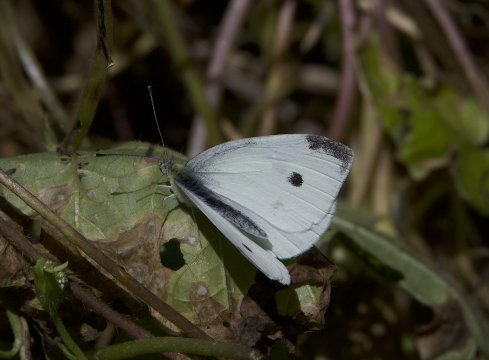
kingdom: Animalia
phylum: Arthropoda
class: Insecta
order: Lepidoptera
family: Pieridae
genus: Pieris
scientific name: Pieris rapae
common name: Cabbage White
